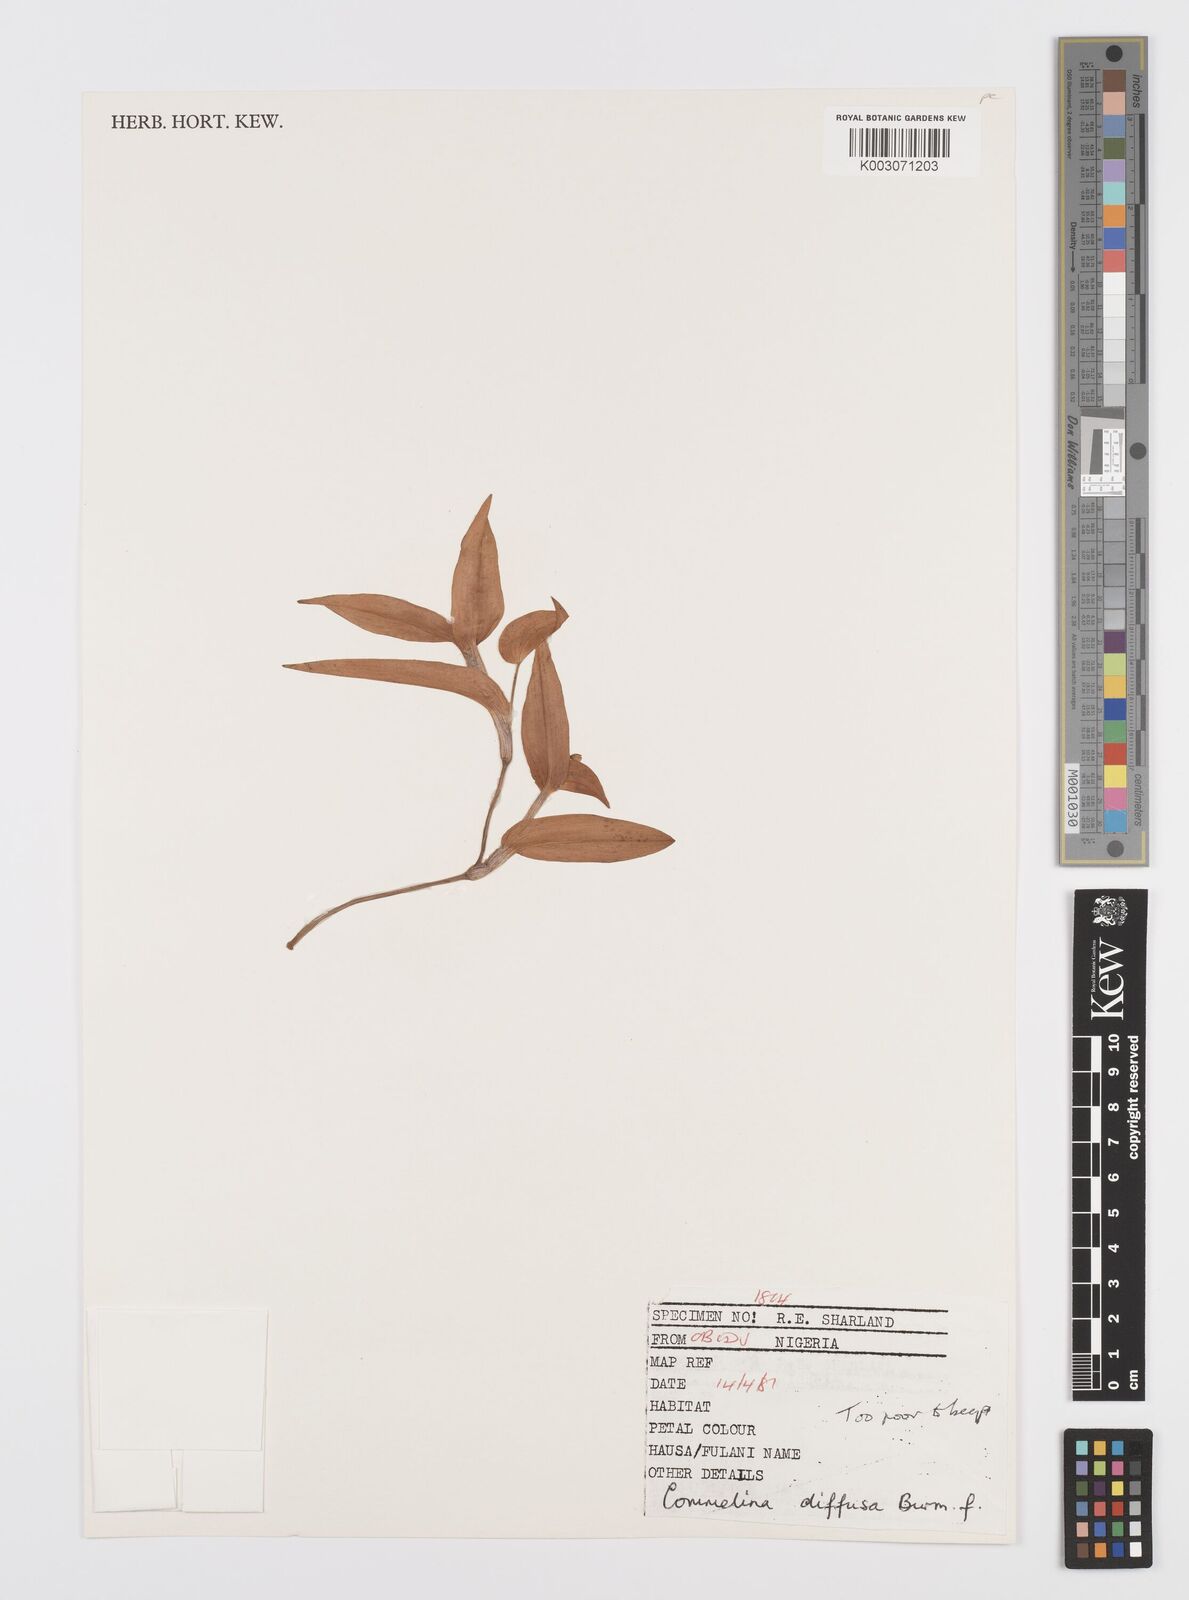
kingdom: Plantae
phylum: Tracheophyta
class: Liliopsida
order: Commelinales
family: Commelinaceae
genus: Commelina
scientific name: Commelina diffusa
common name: Climbing dayflower
